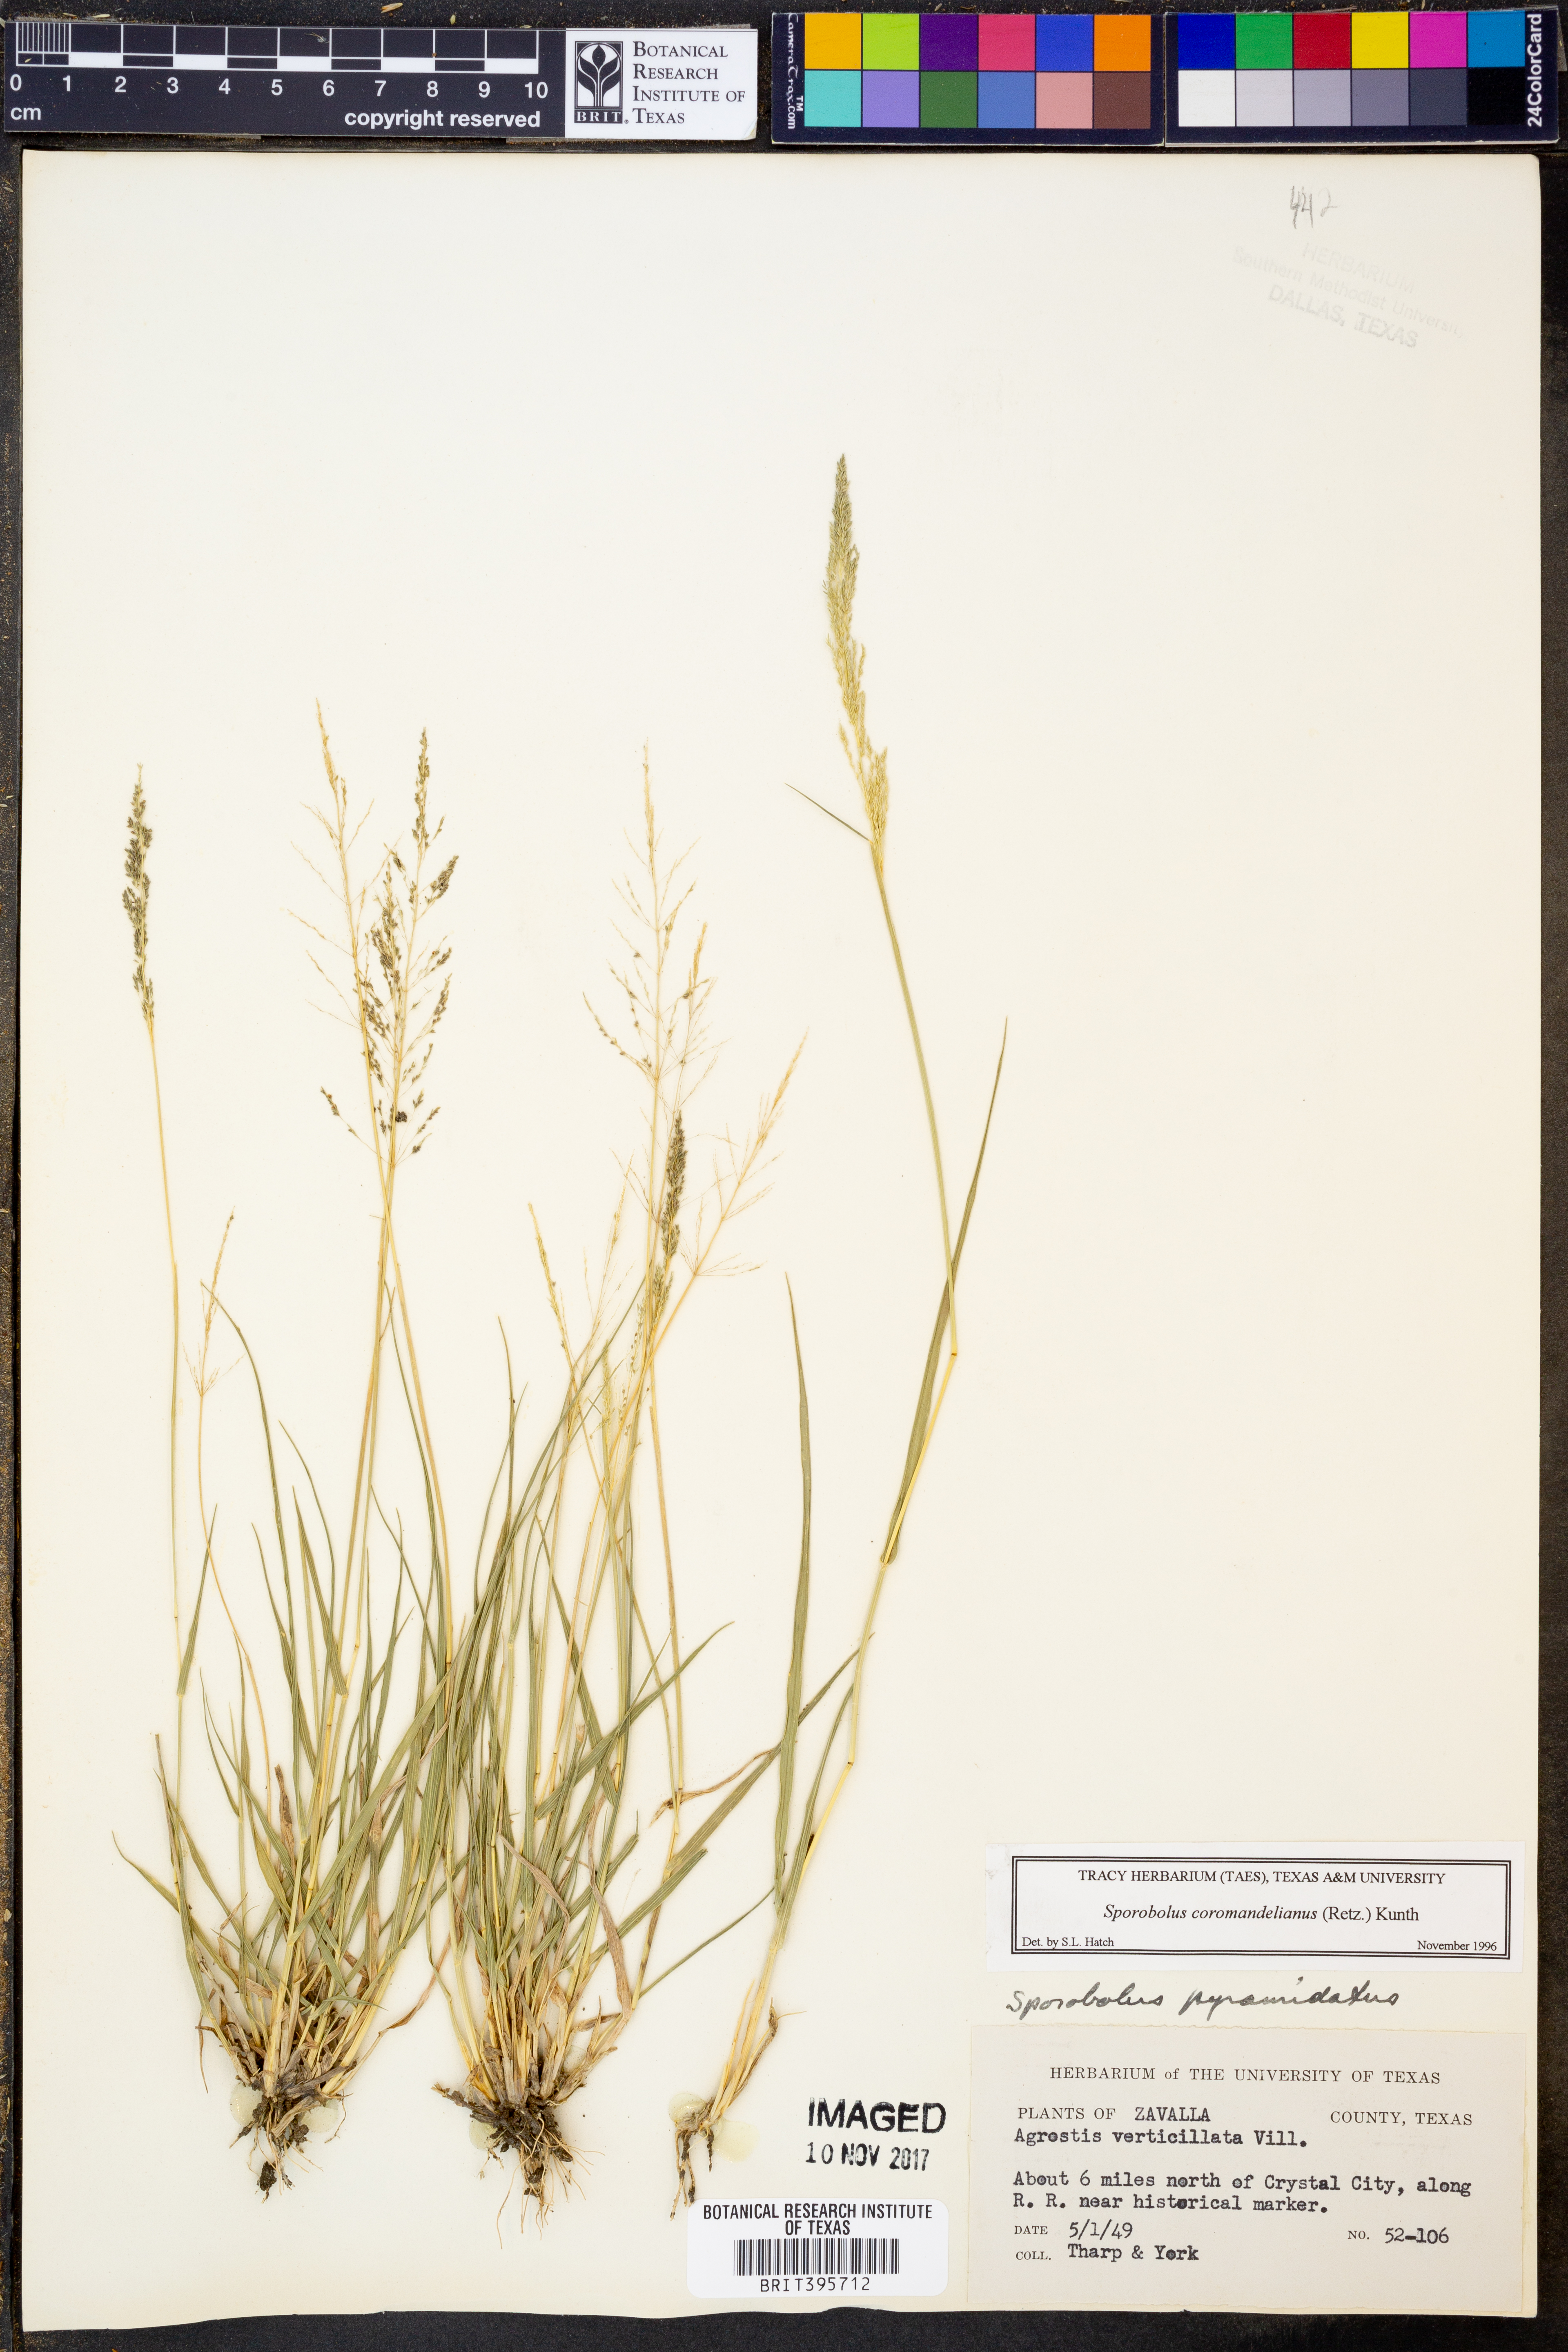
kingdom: Plantae
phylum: Tracheophyta
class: Liliopsida
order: Poales
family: Poaceae
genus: Sporobolus
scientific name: Sporobolus coromandelianus
